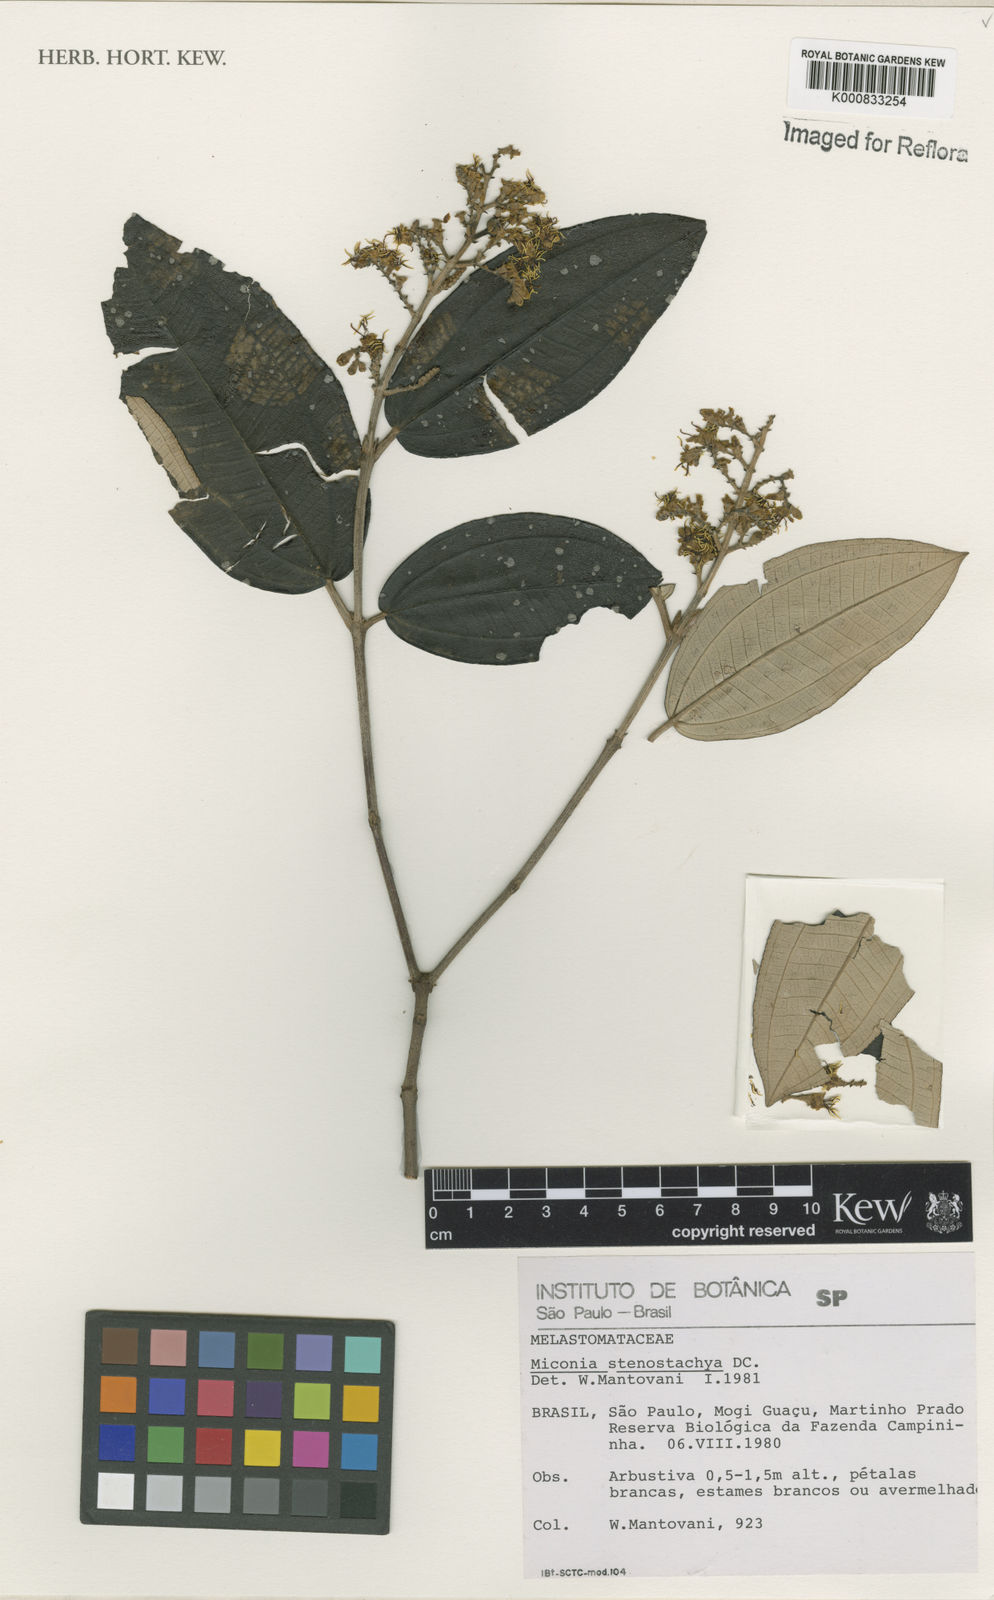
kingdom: Plantae
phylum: Tracheophyta
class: Magnoliopsida
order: Myrtales
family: Melastomataceae
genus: Miconia
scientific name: Miconia stenostachya
